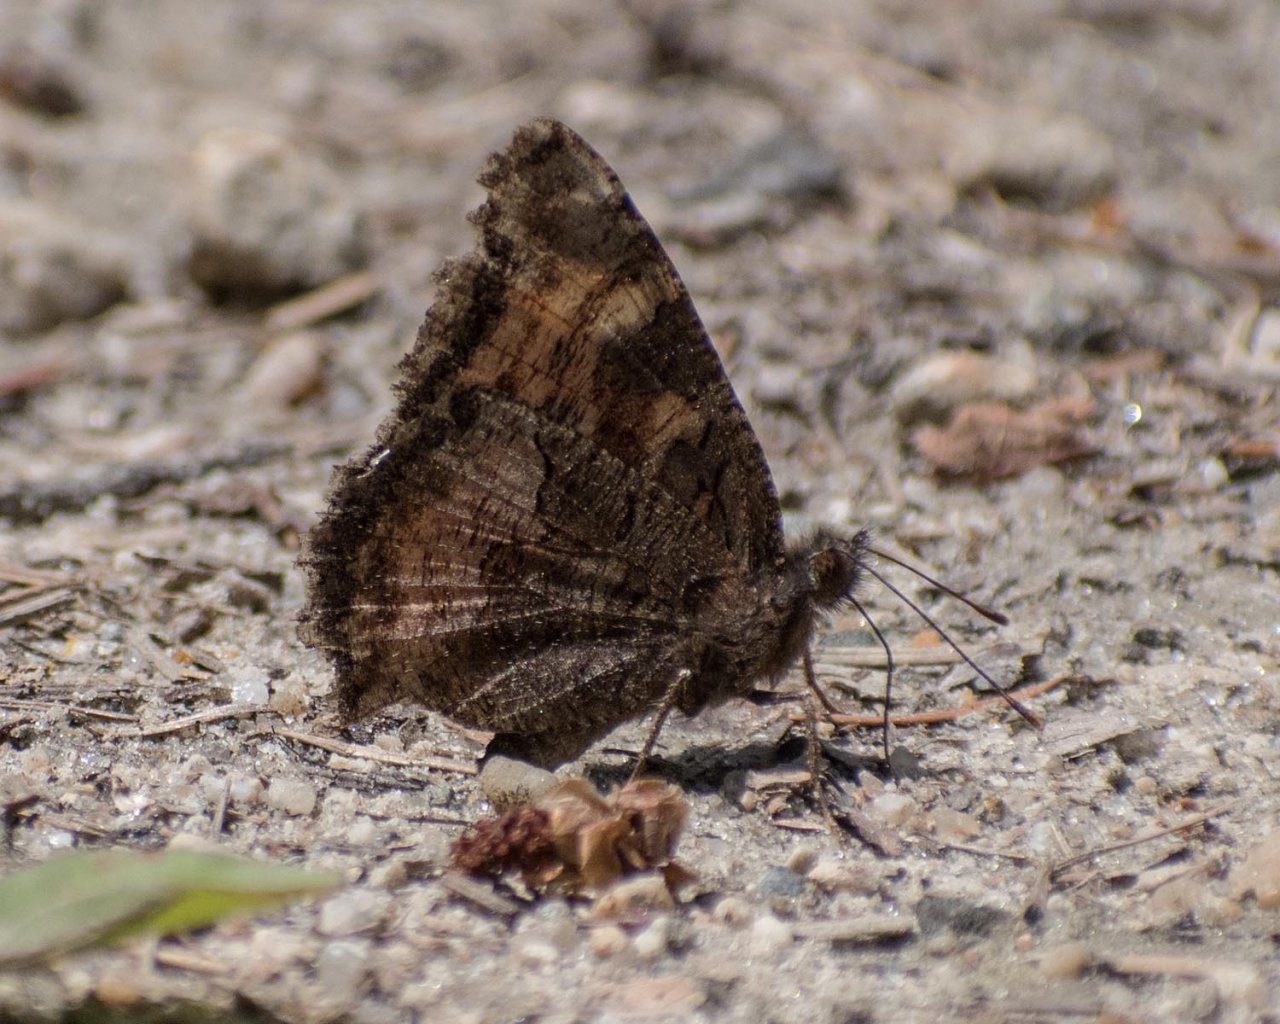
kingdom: Animalia
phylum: Arthropoda
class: Insecta
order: Lepidoptera
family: Nymphalidae
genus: Nymphalis
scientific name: Nymphalis californica
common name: California Tortoiseshell
